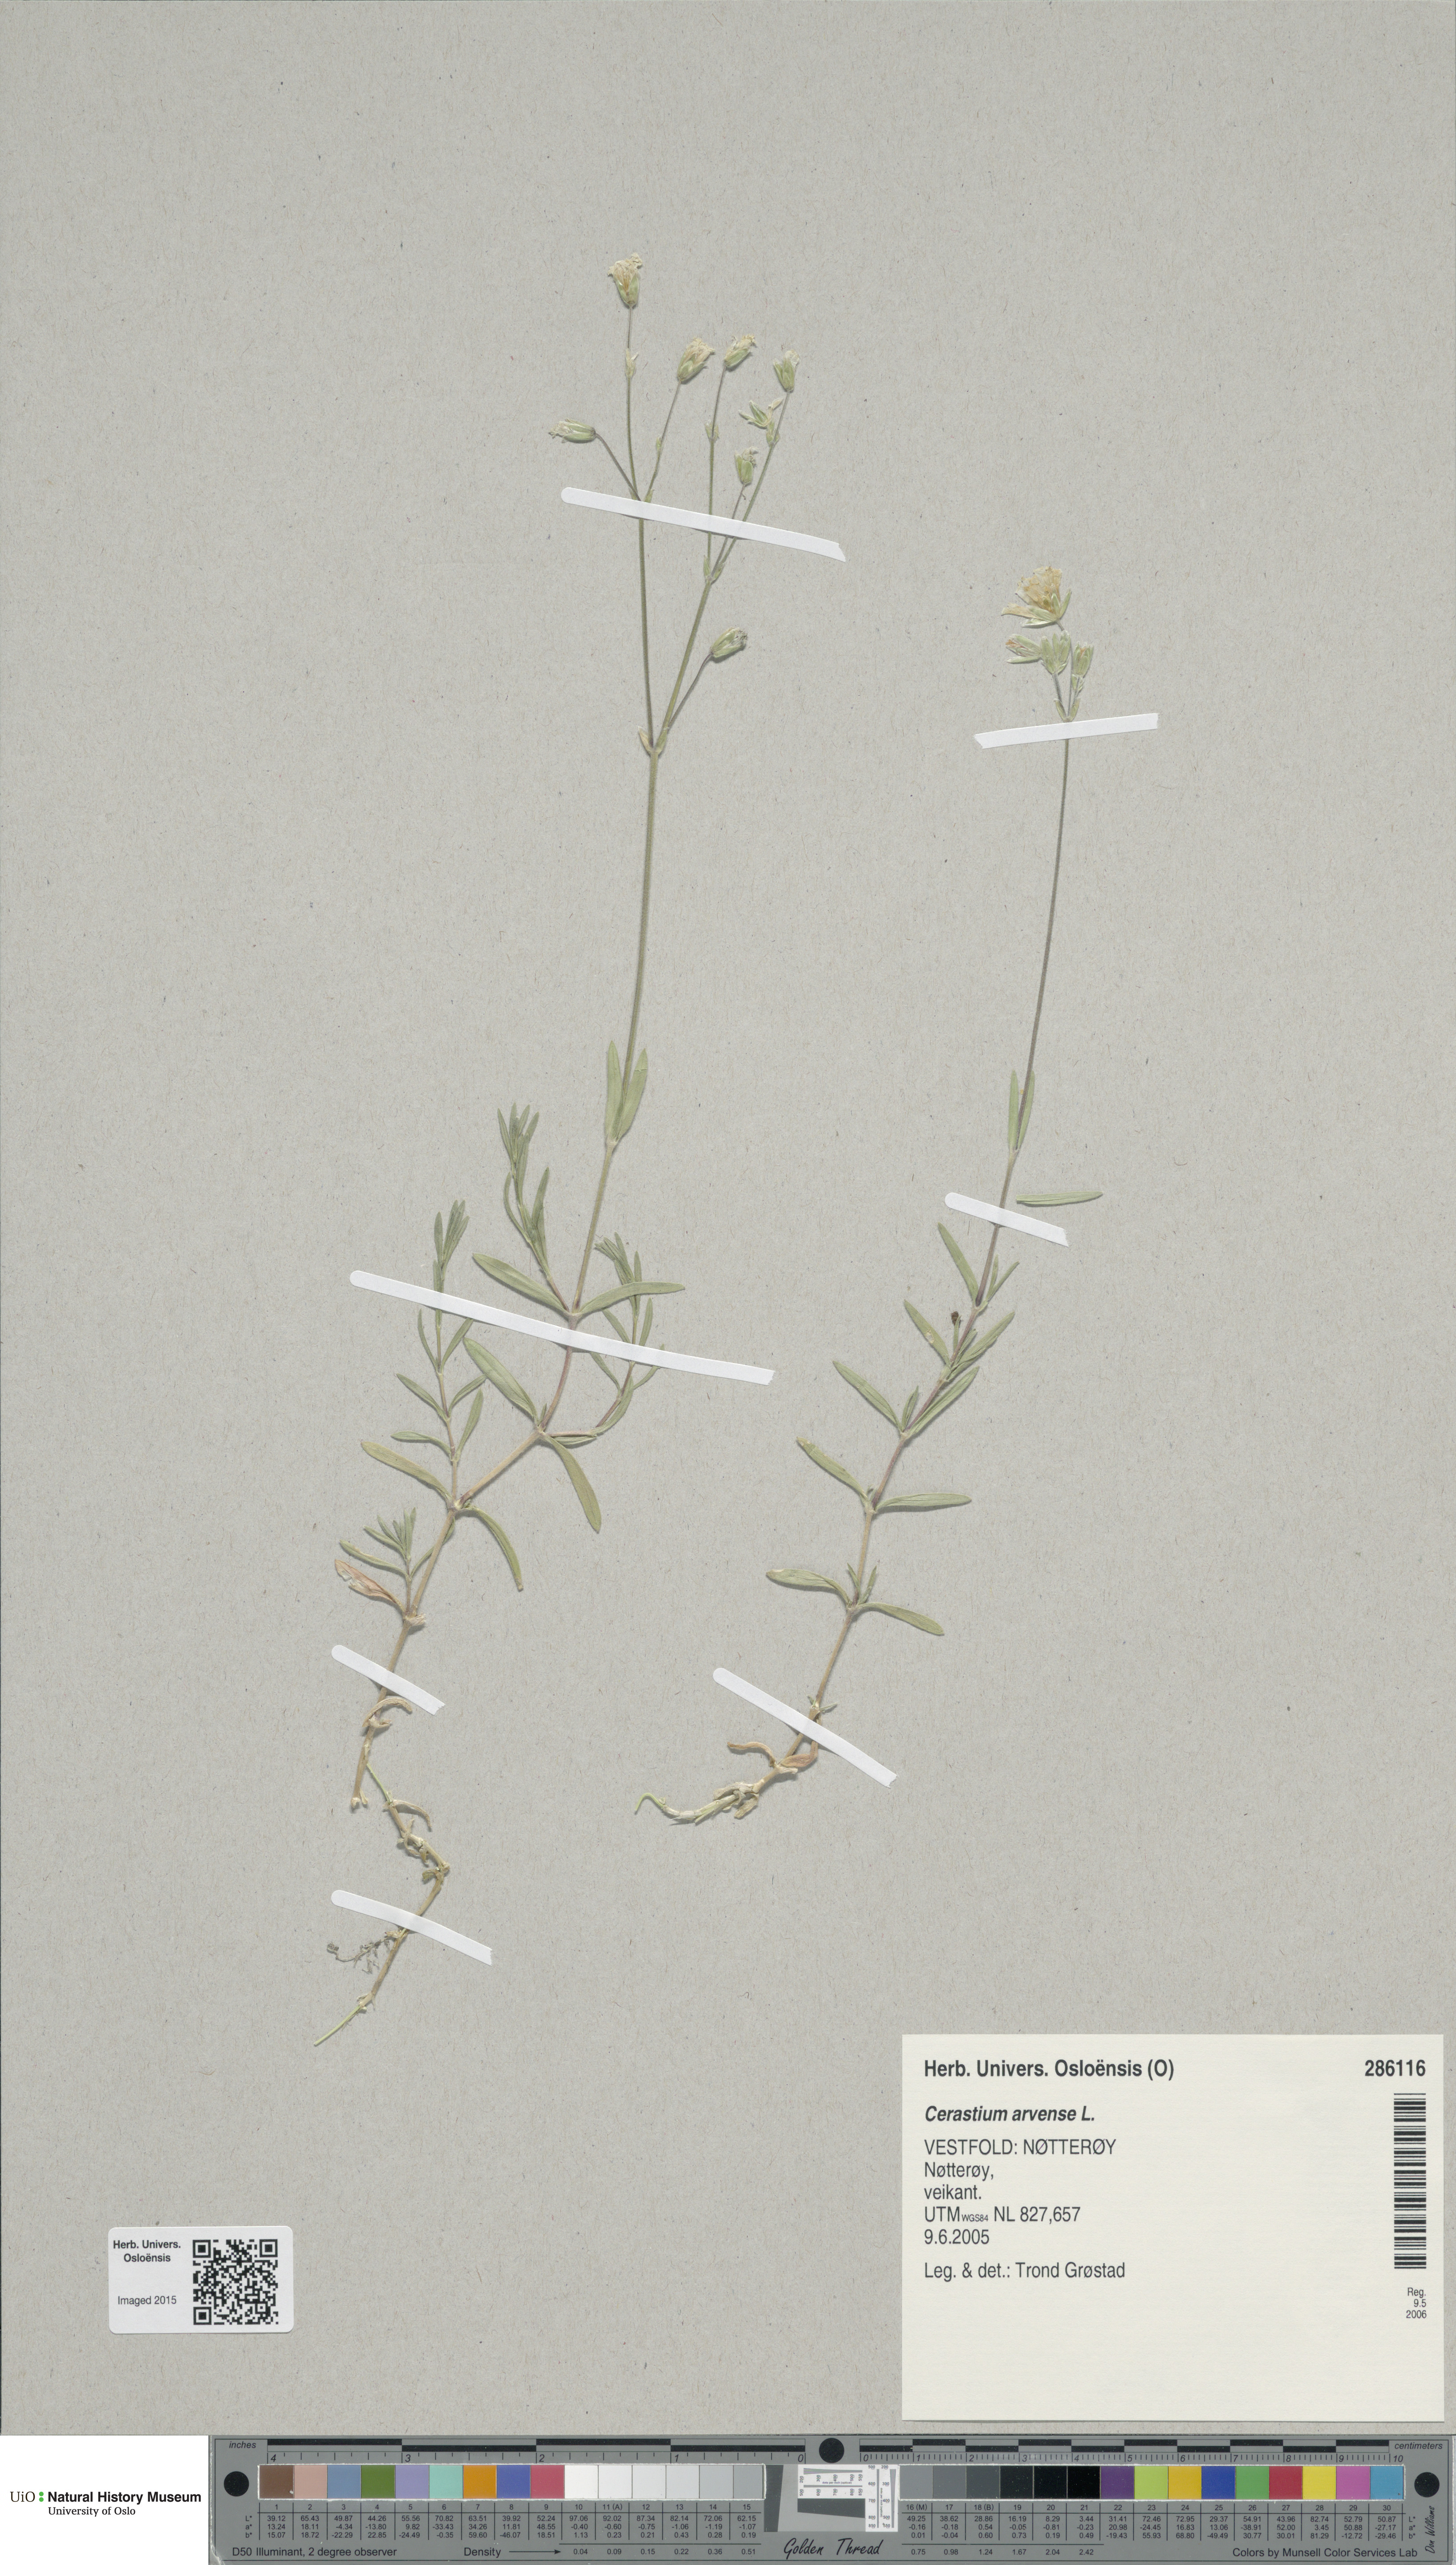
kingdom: Plantae
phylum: Tracheophyta
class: Magnoliopsida
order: Caryophyllales
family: Caryophyllaceae
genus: Cerastium
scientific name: Cerastium arvense
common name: Field mouse-ear
